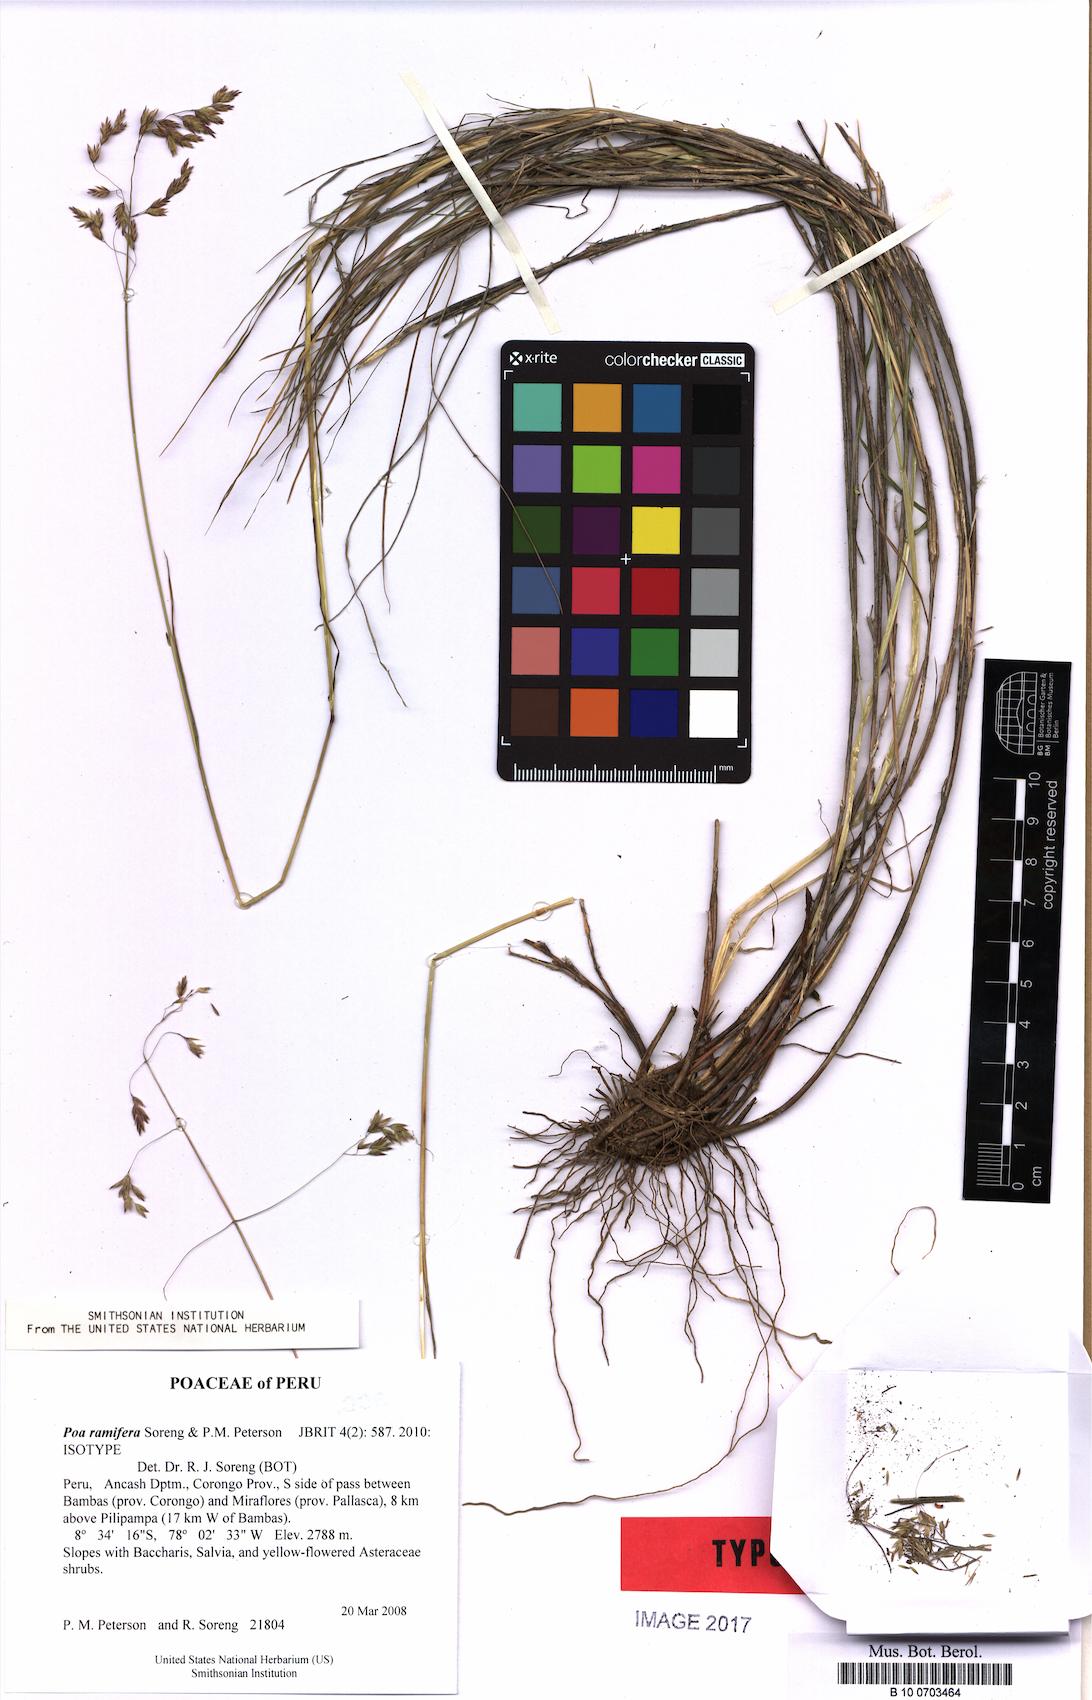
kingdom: Plantae
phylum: Tracheophyta
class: Liliopsida
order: Poales
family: Poaceae
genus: Poa
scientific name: Poa ramifera
